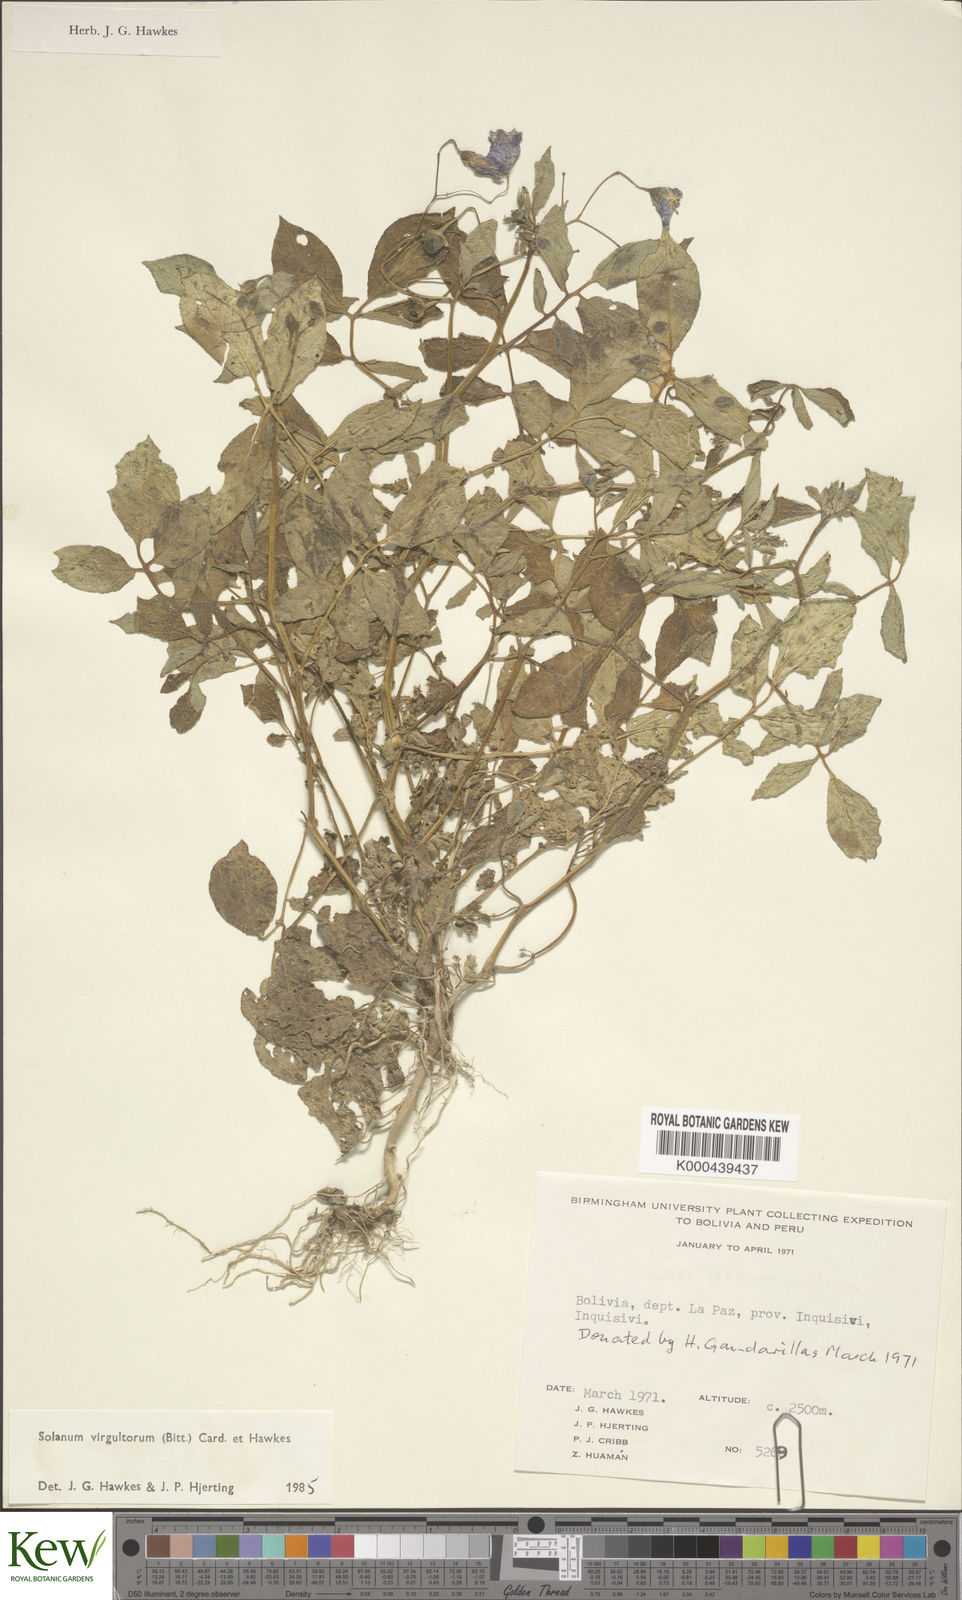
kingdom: Plantae
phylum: Tracheophyta
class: Magnoliopsida
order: Solanales
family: Solanaceae
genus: Solanum
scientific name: Solanum brevicaule
